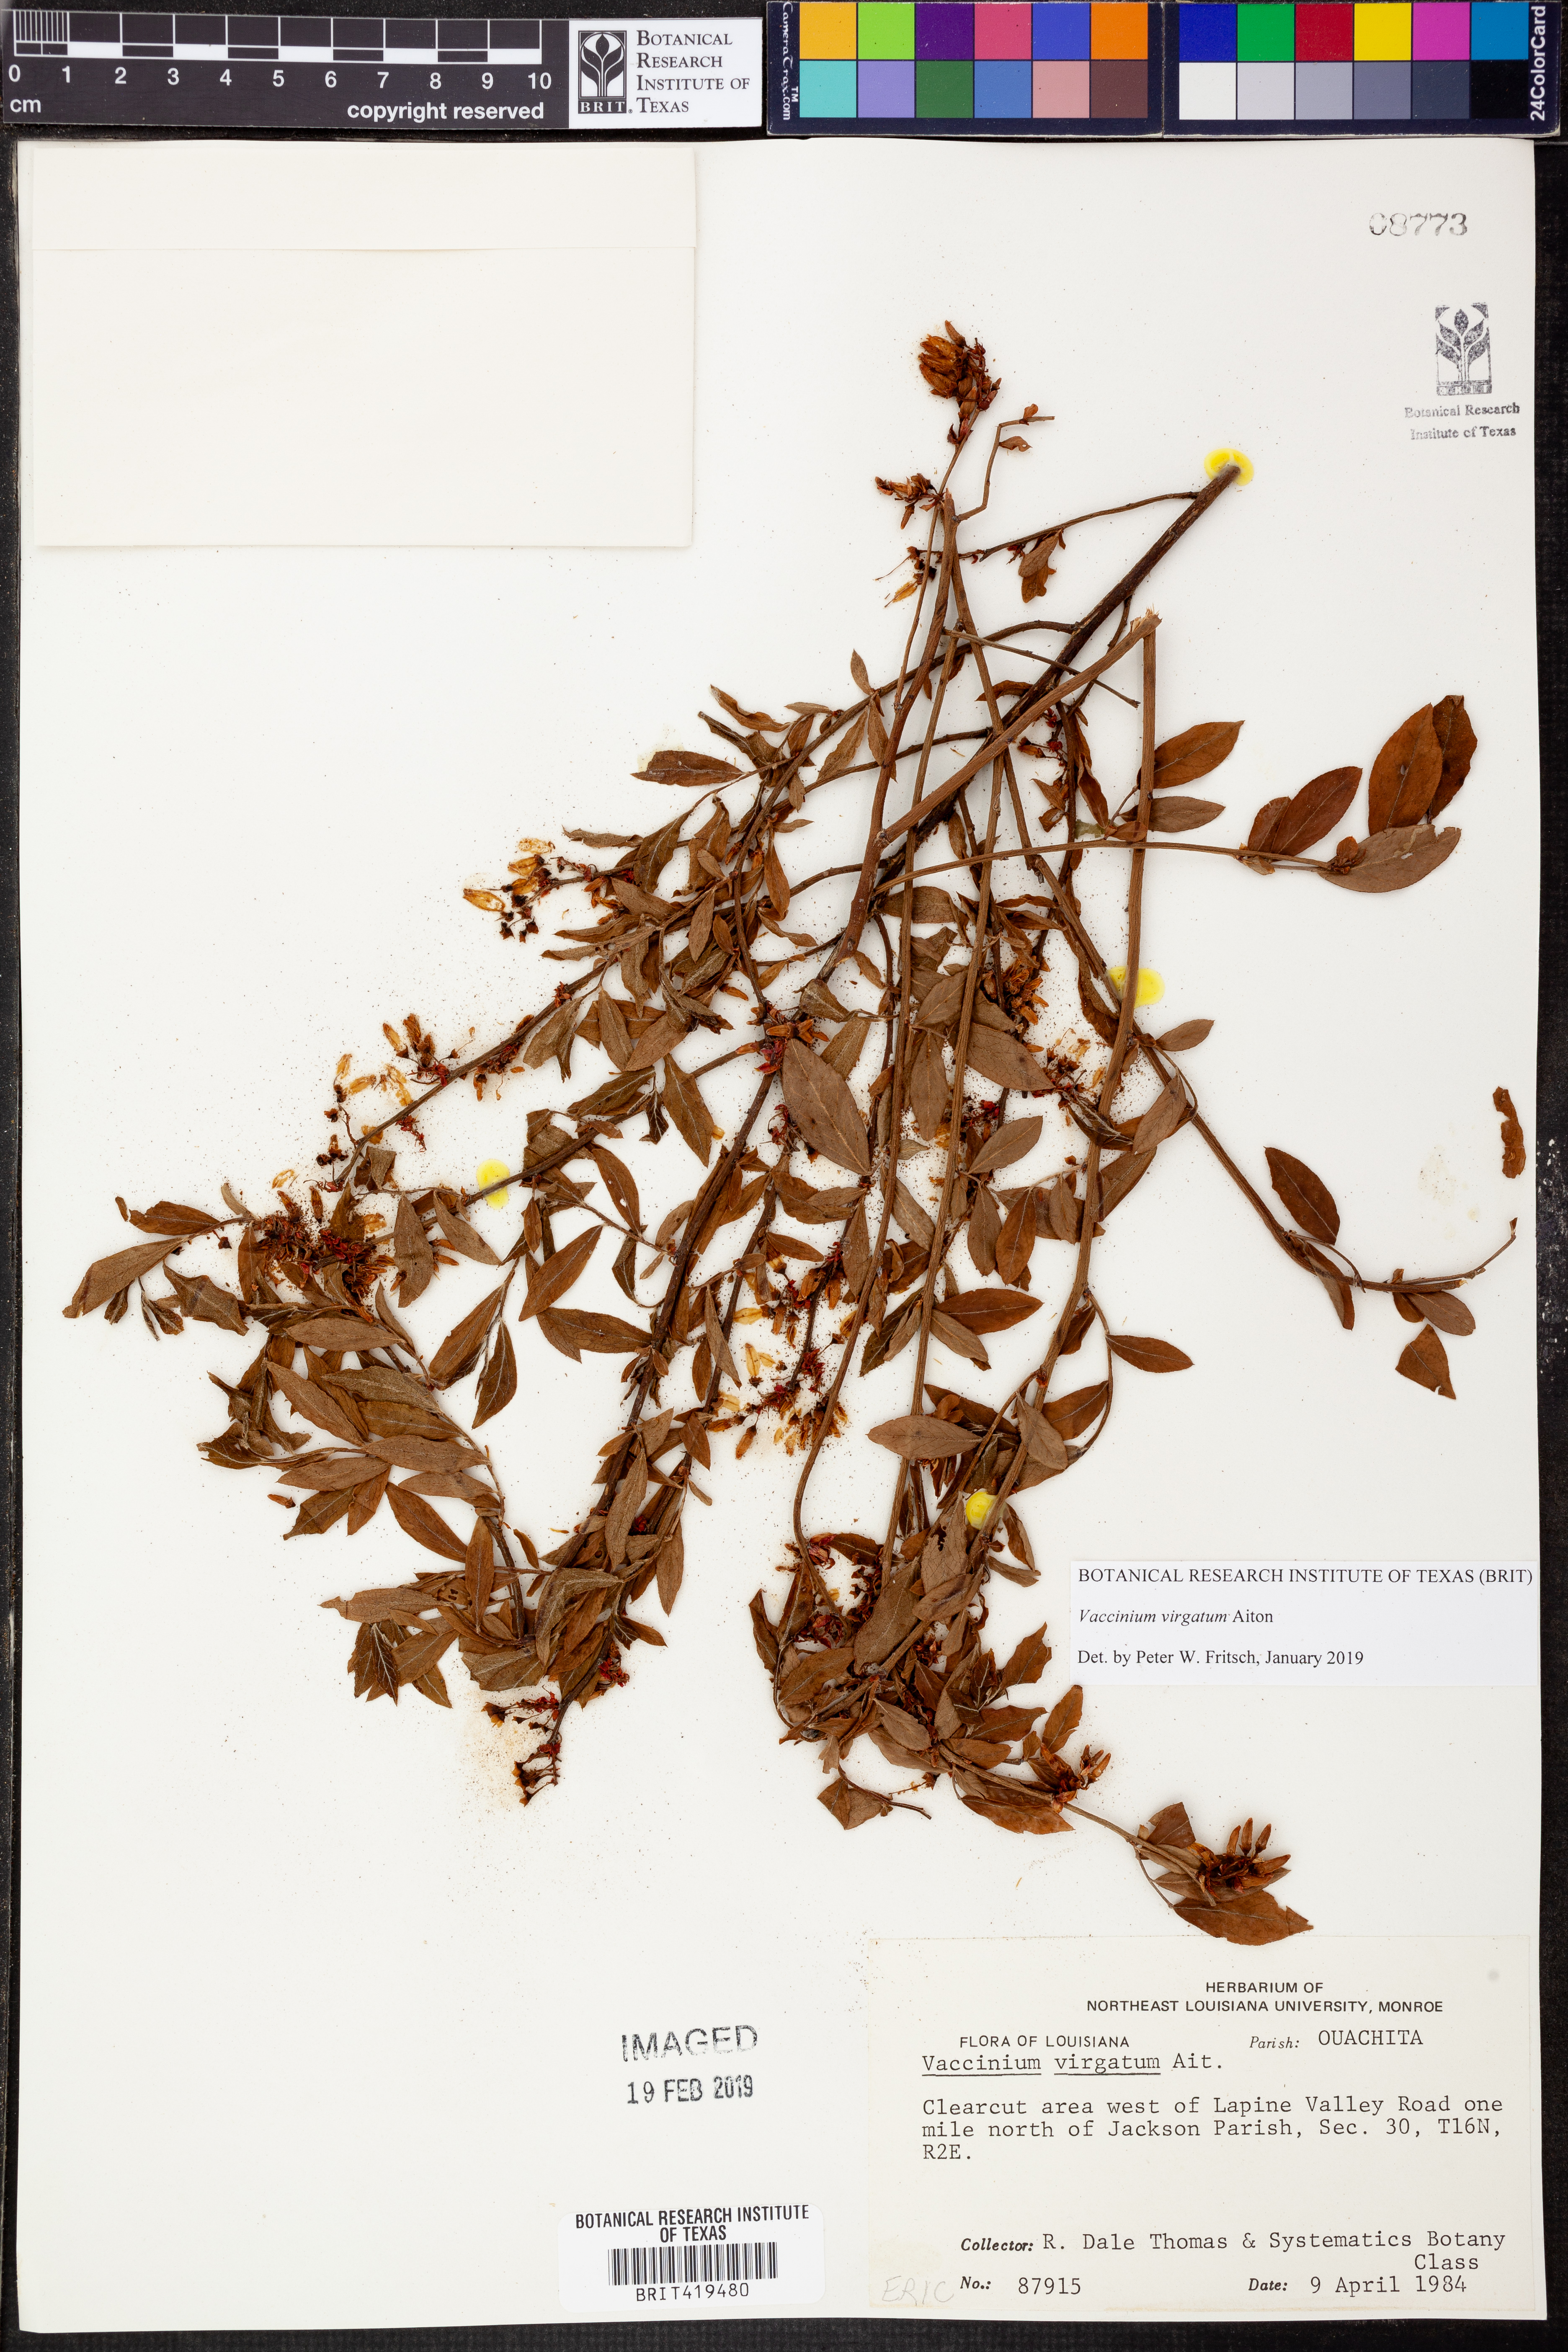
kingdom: Plantae
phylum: Tracheophyta
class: Magnoliopsida
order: Ericales
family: Ericaceae
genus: Vaccinium
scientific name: Vaccinium corymbosum
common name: Blueberry
